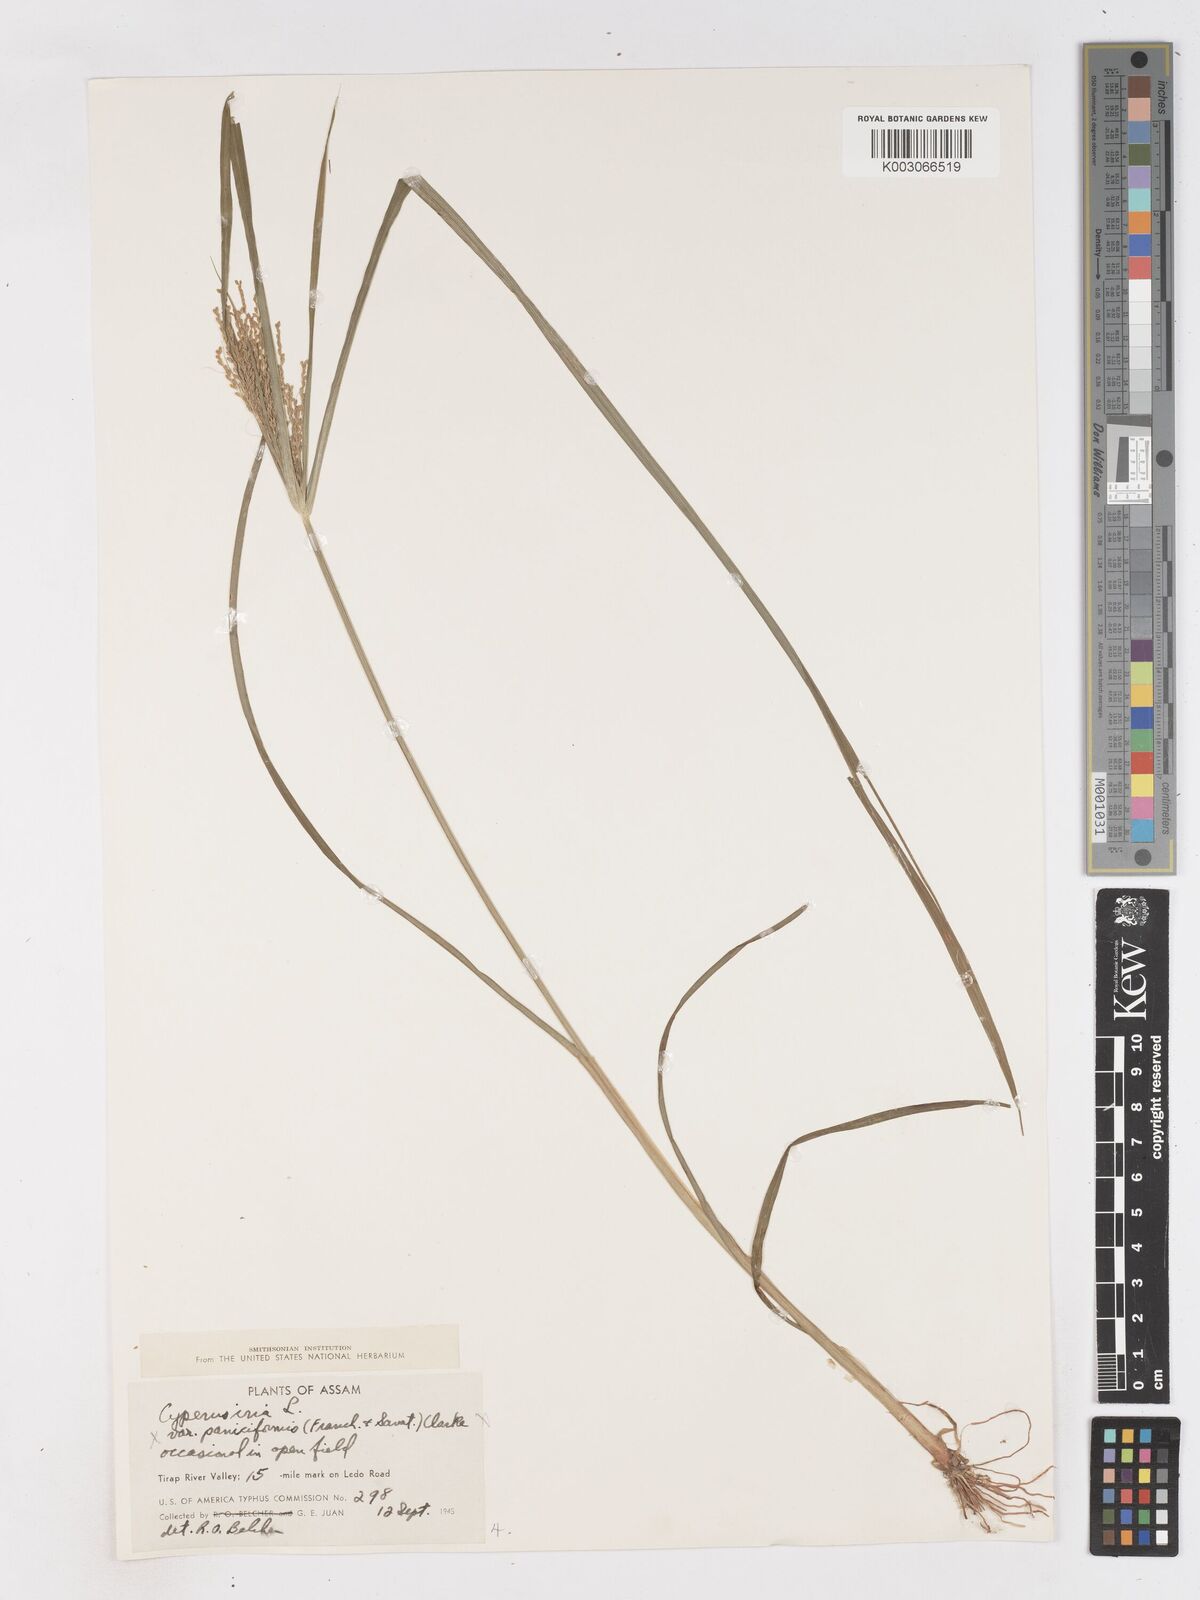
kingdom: Plantae
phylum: Tracheophyta
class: Liliopsida
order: Poales
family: Cyperaceae
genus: Cyperus
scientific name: Cyperus iria
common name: Ricefield flatsedge
